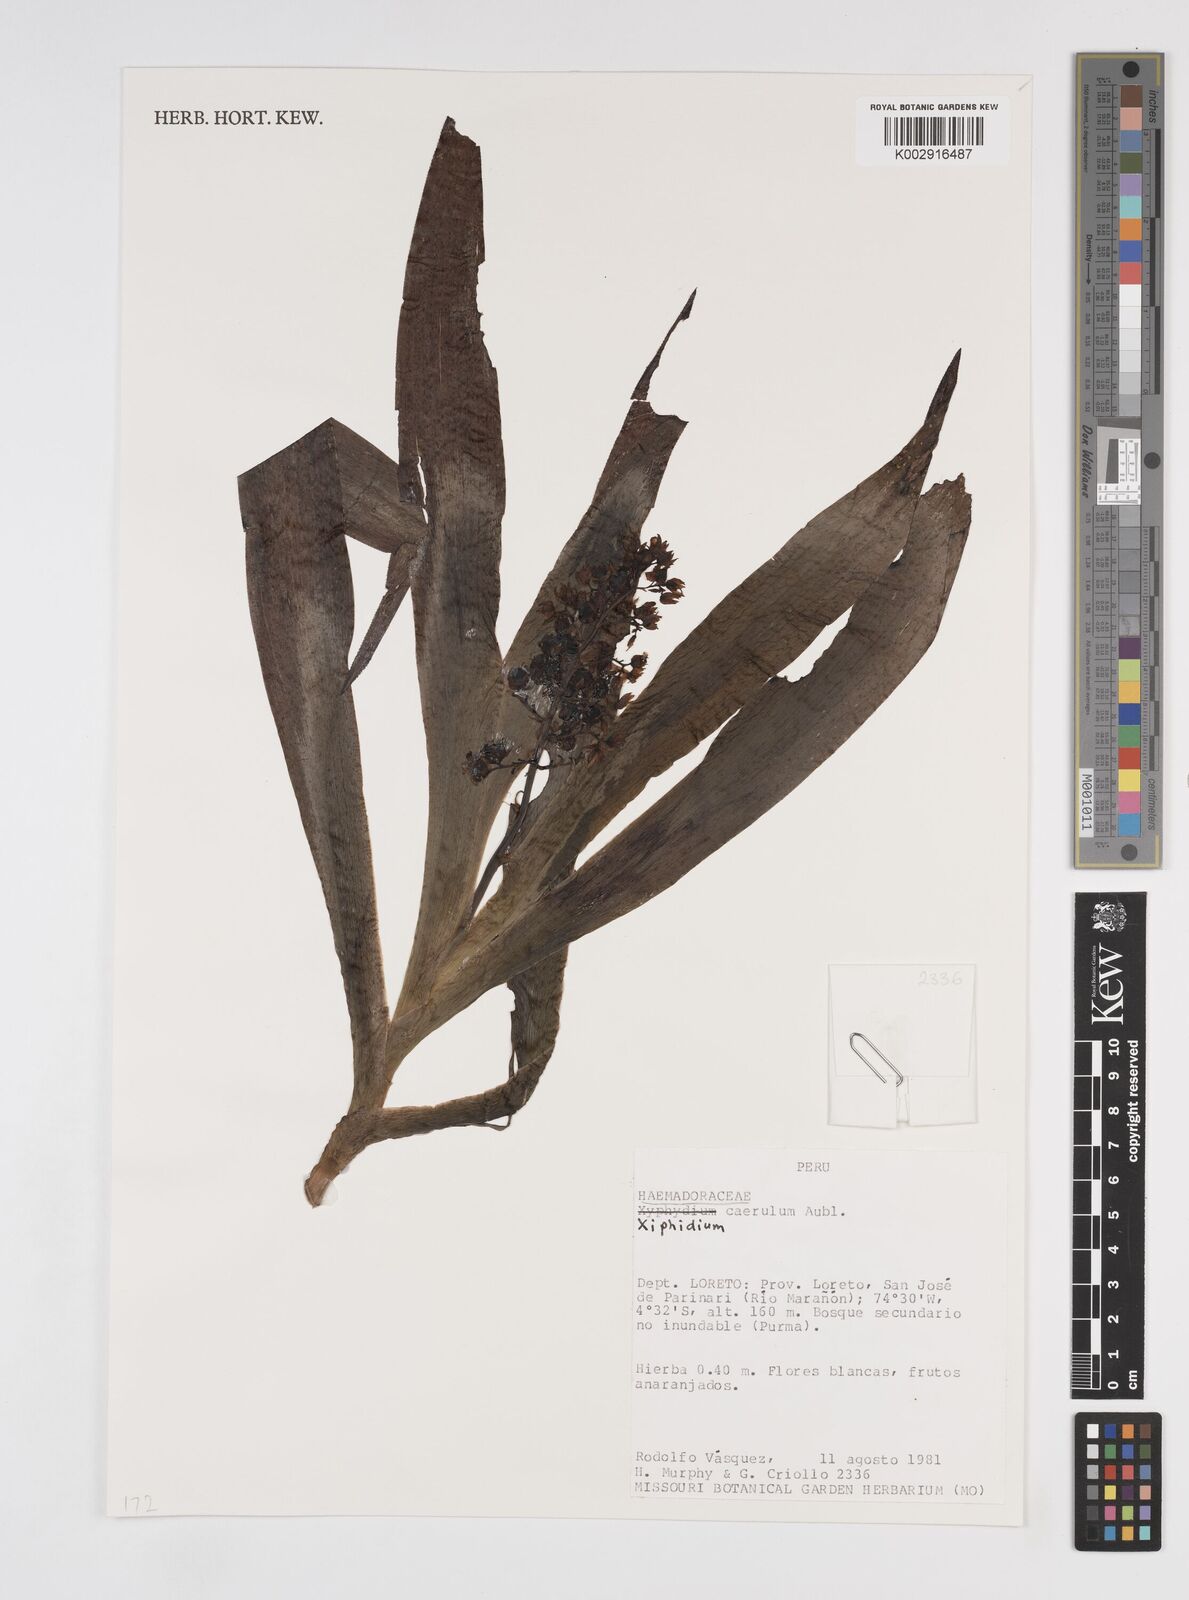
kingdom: Plantae
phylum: Tracheophyta
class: Liliopsida
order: Commelinales
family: Haemodoraceae
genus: Xiphidium
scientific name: Xiphidium caeruleum
